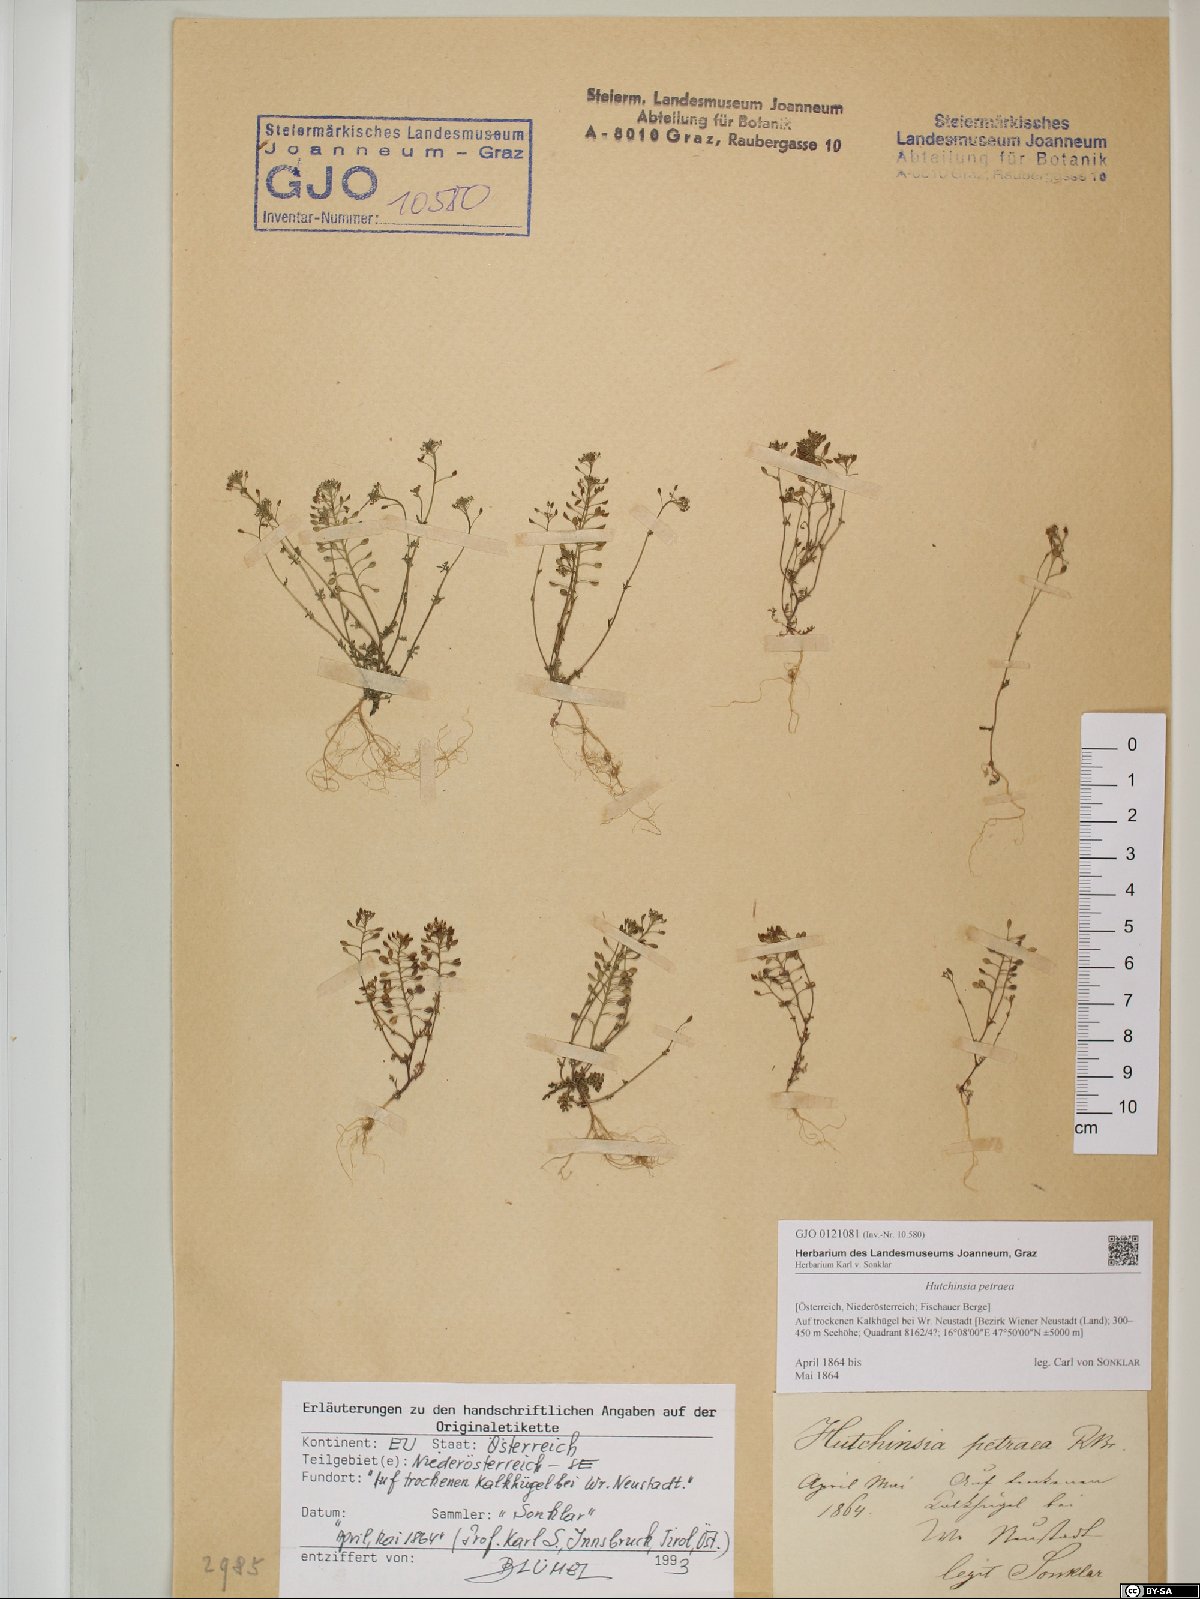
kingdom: Plantae
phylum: Tracheophyta
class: Magnoliopsida
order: Brassicales
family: Brassicaceae
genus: Hornungia
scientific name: Hornungia petraea
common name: Hutchinsia
